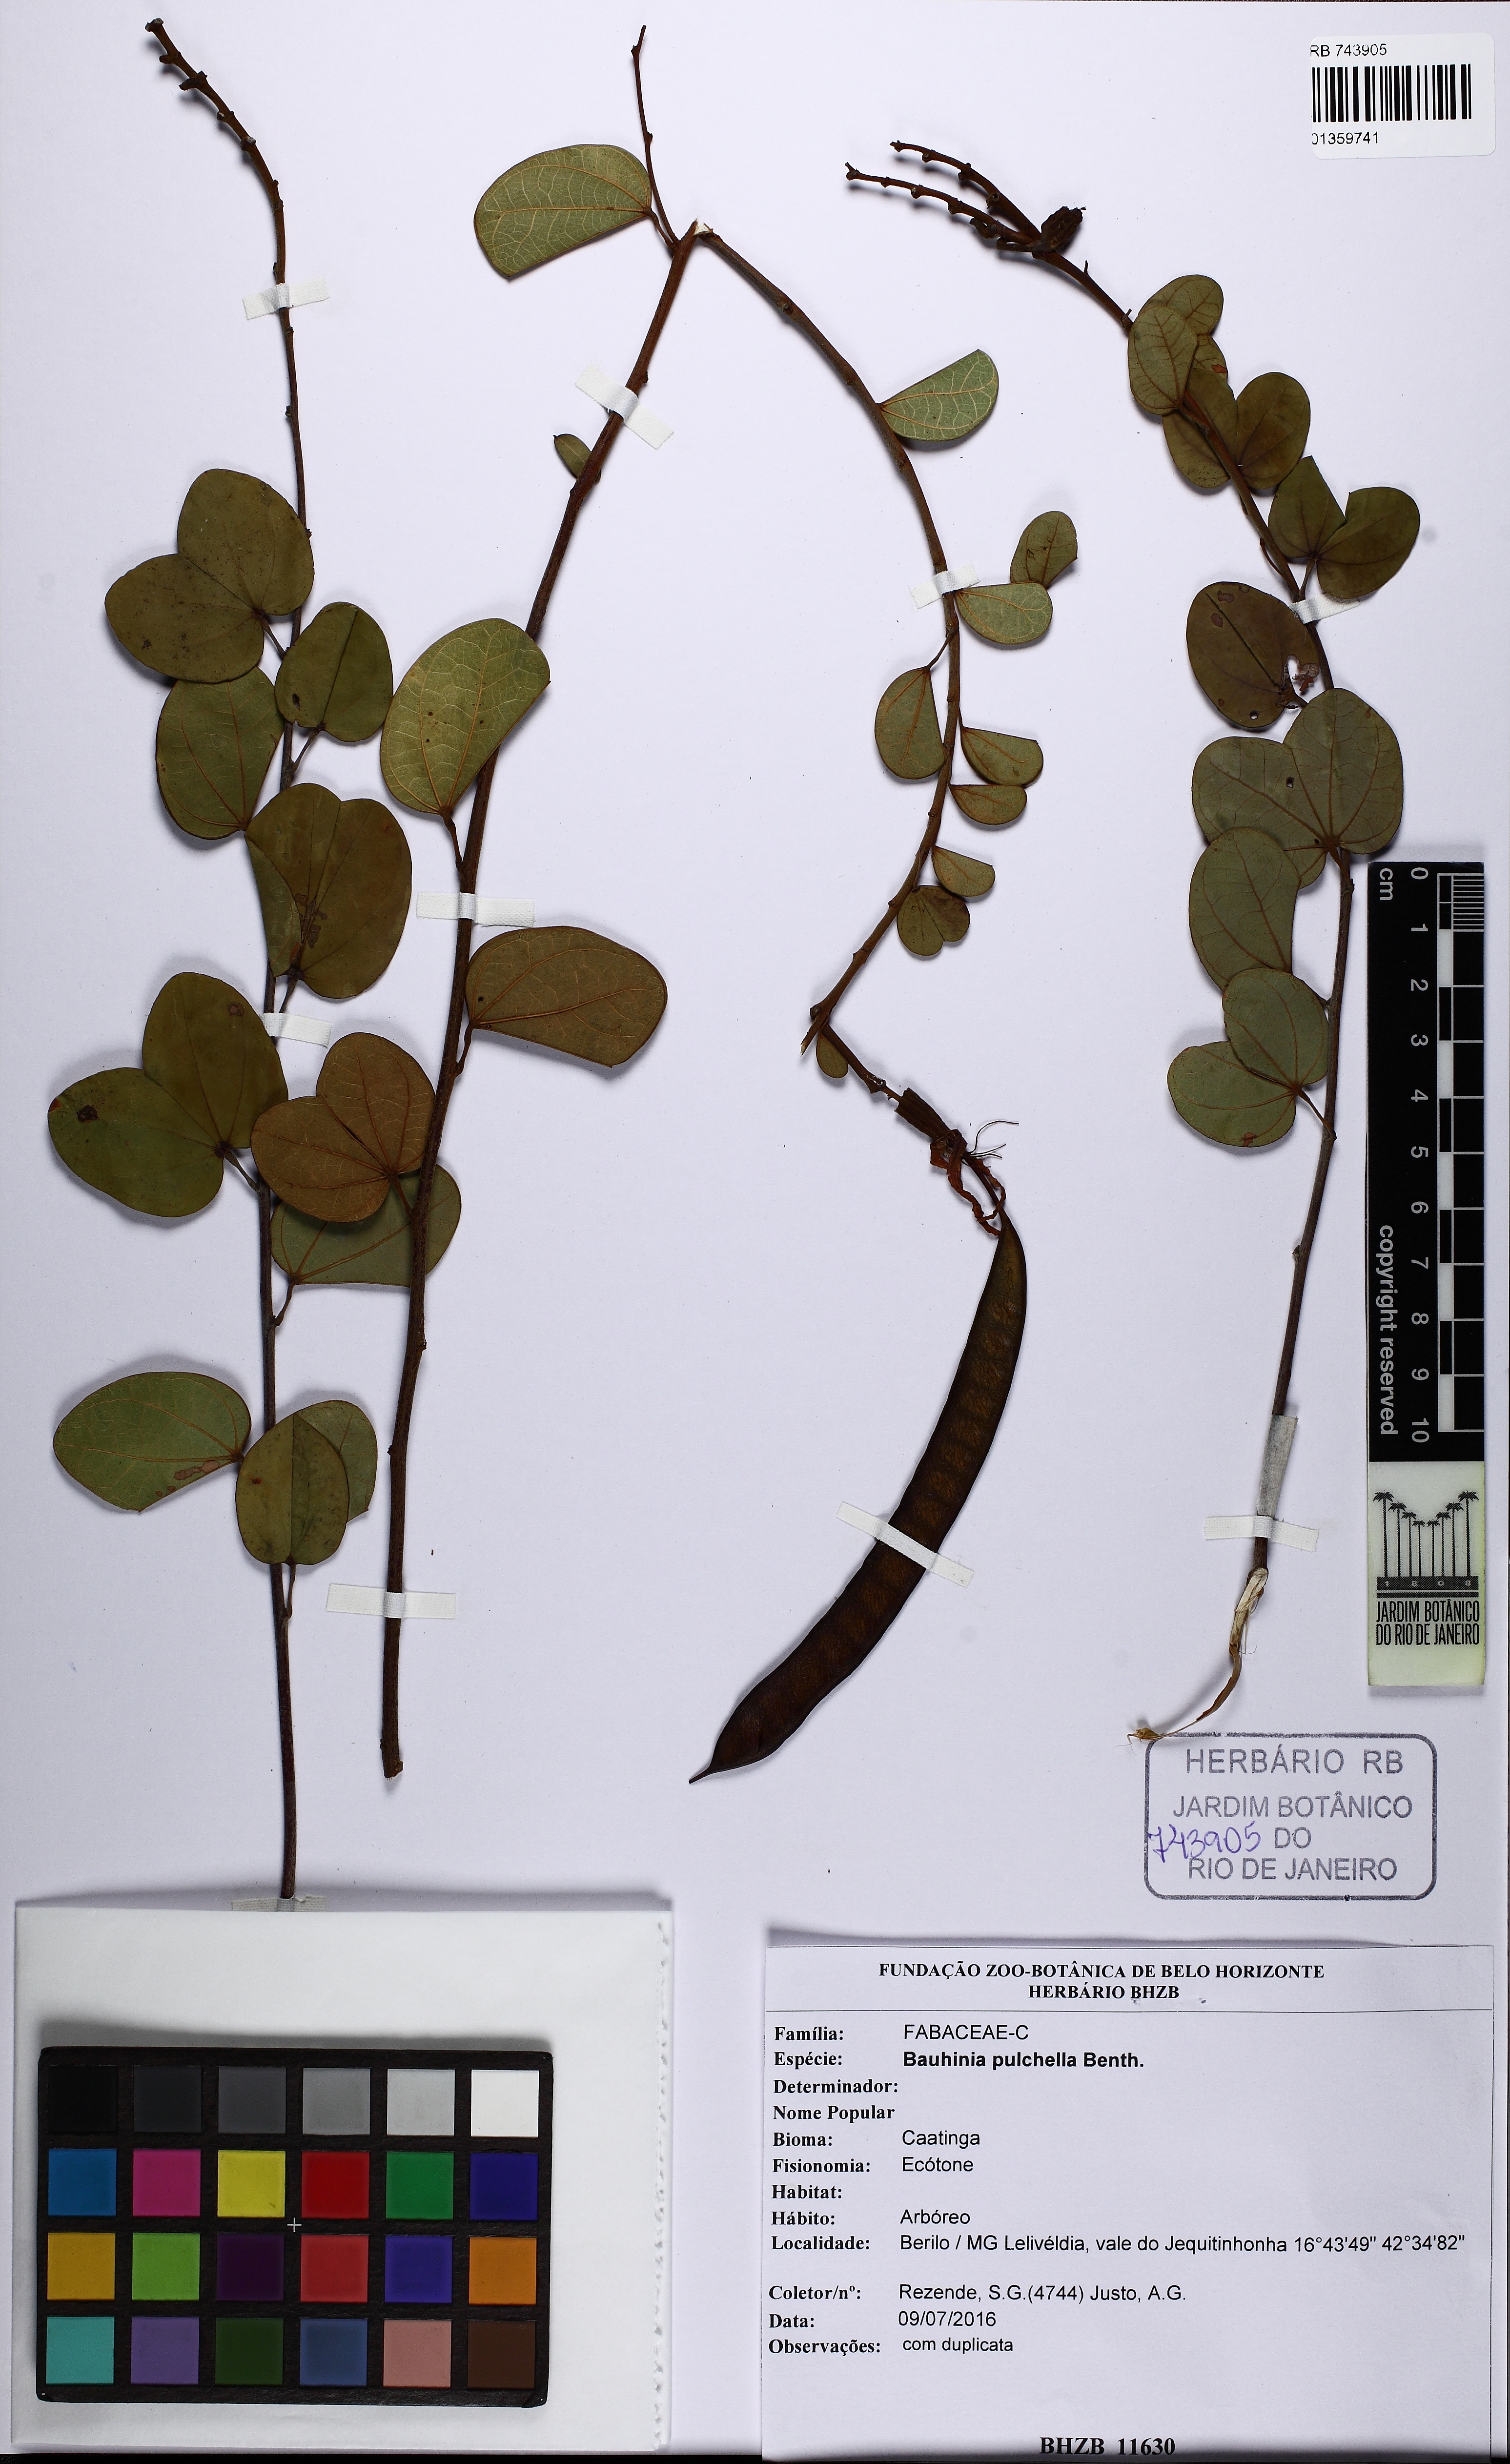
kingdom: Plantae
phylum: Tracheophyta
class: Magnoliopsida
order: Fabales
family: Fabaceae
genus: Bauhinia
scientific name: Bauhinia pulchella
